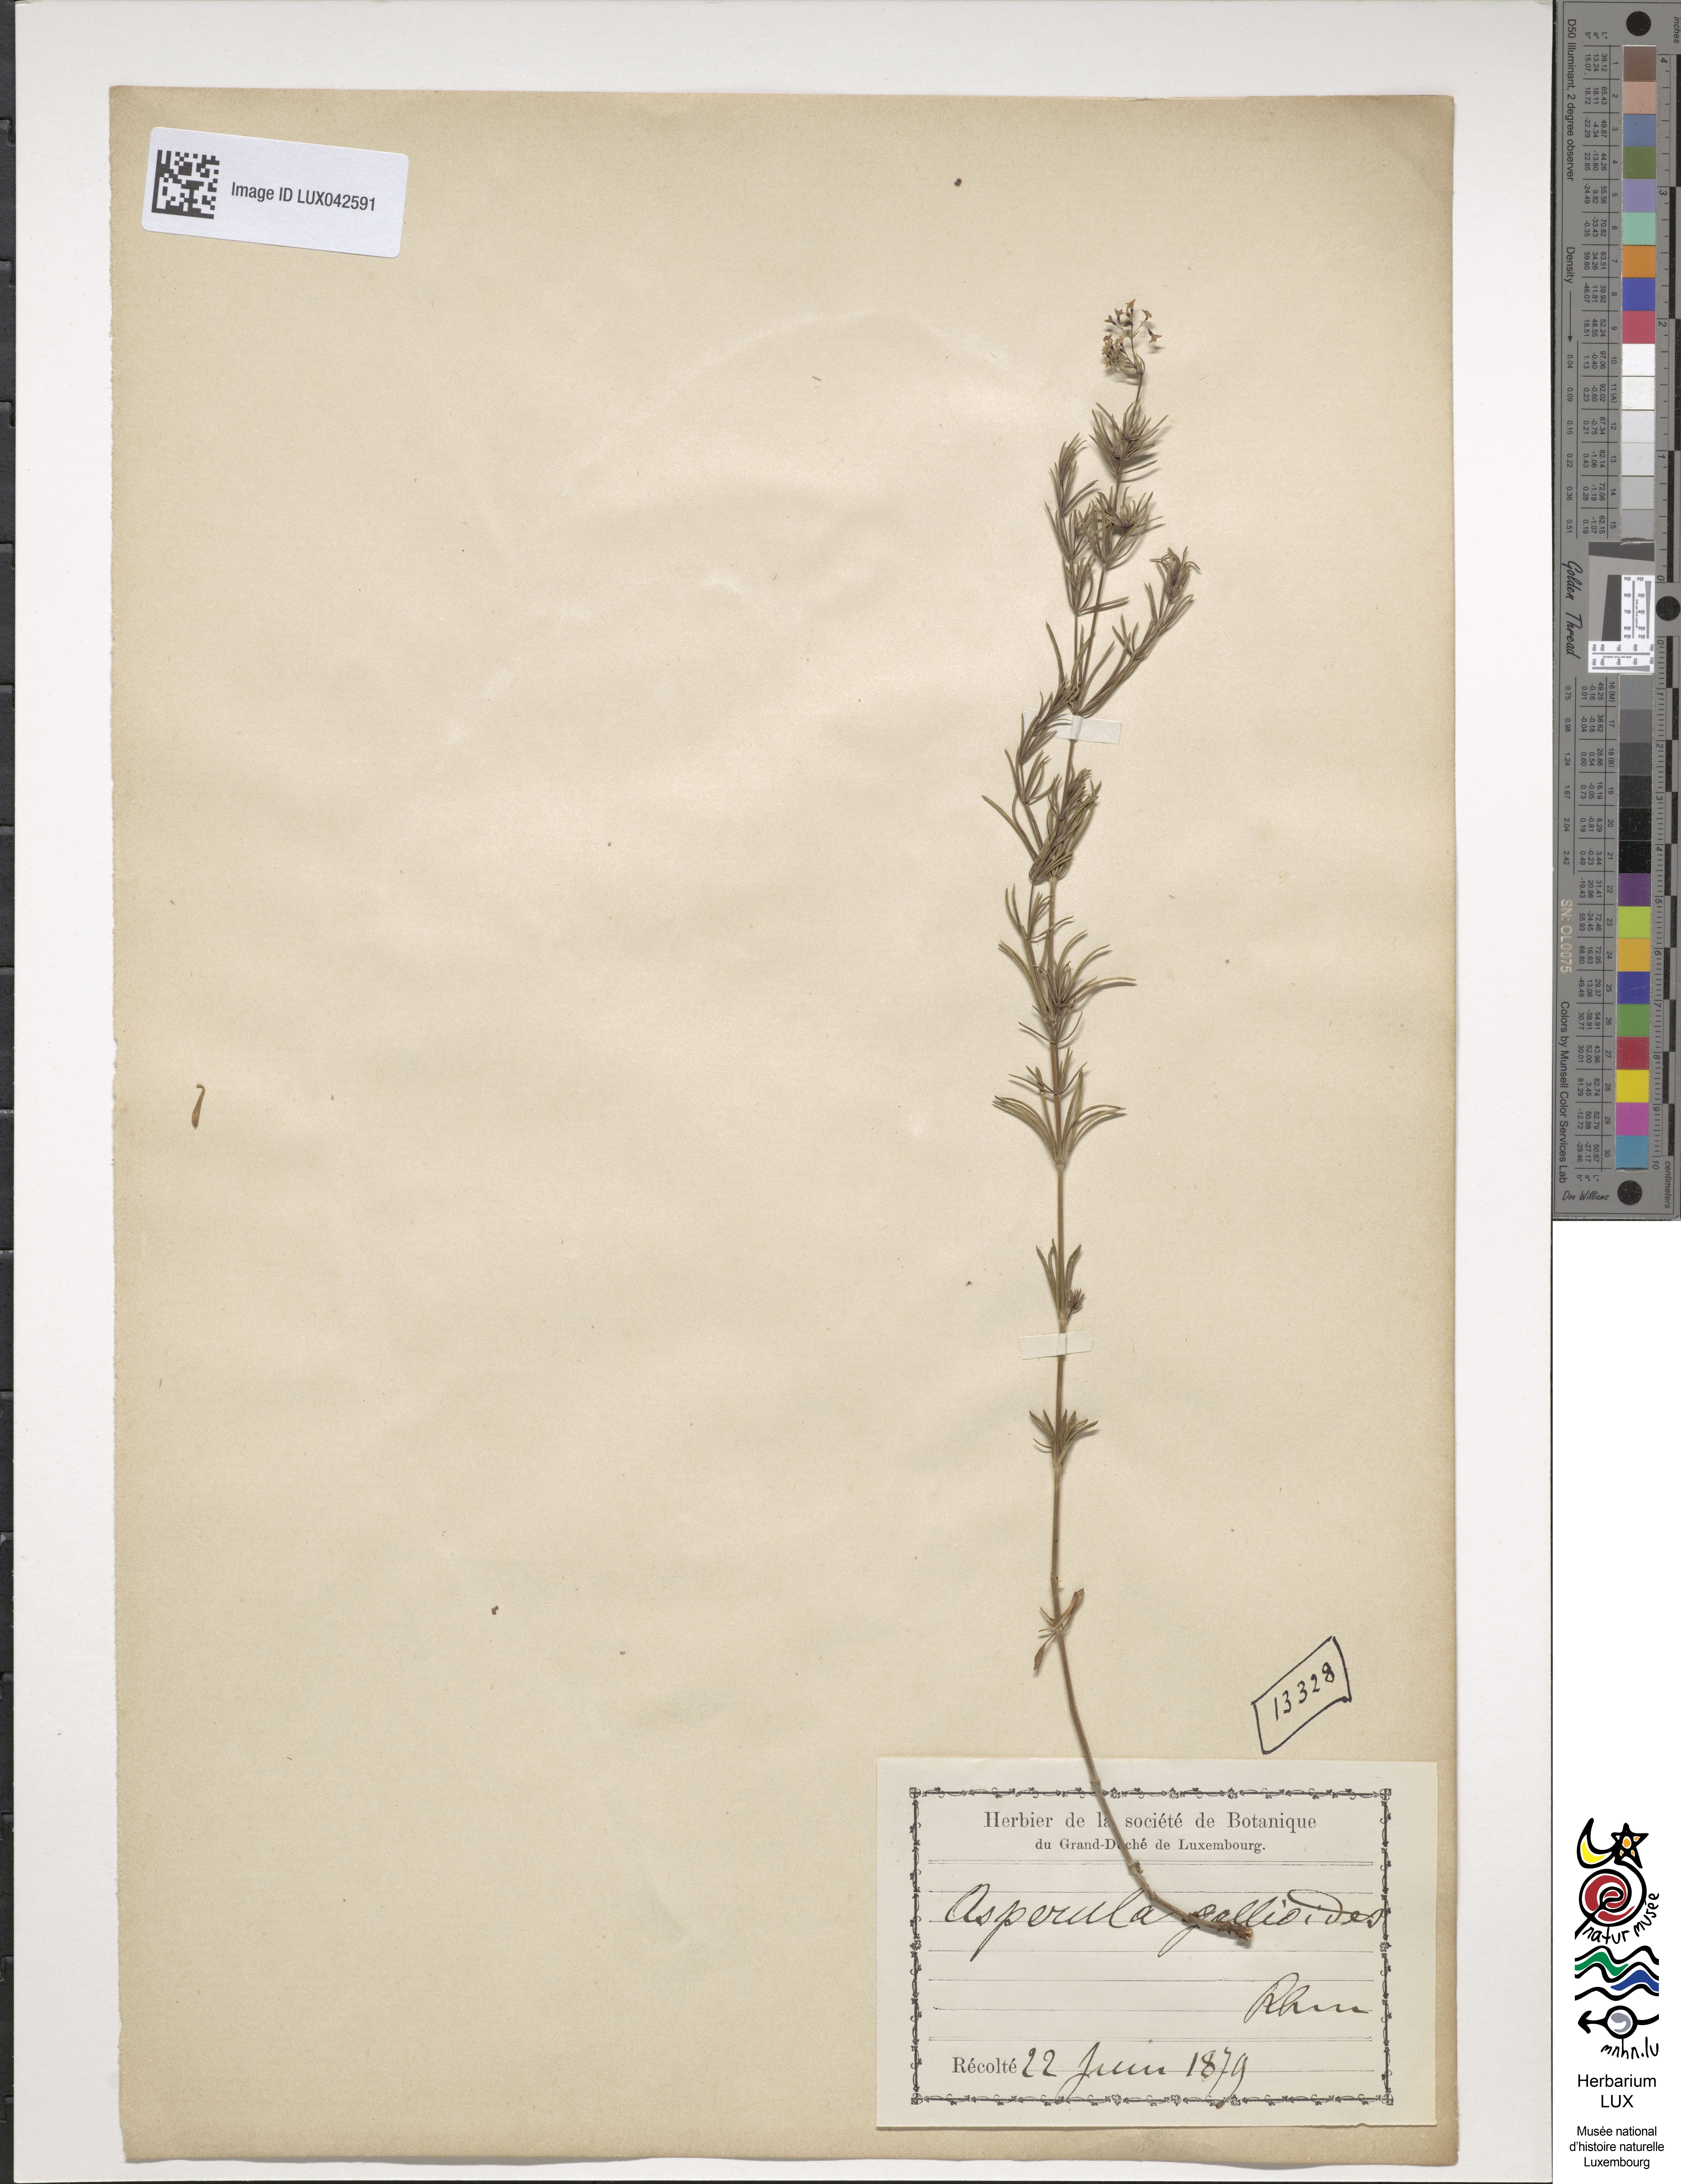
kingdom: Plantae
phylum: Tracheophyta
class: Magnoliopsida
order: Gentianales
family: Rubiaceae
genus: Galium
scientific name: Galium glaucum
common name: Waxy bedstraw
